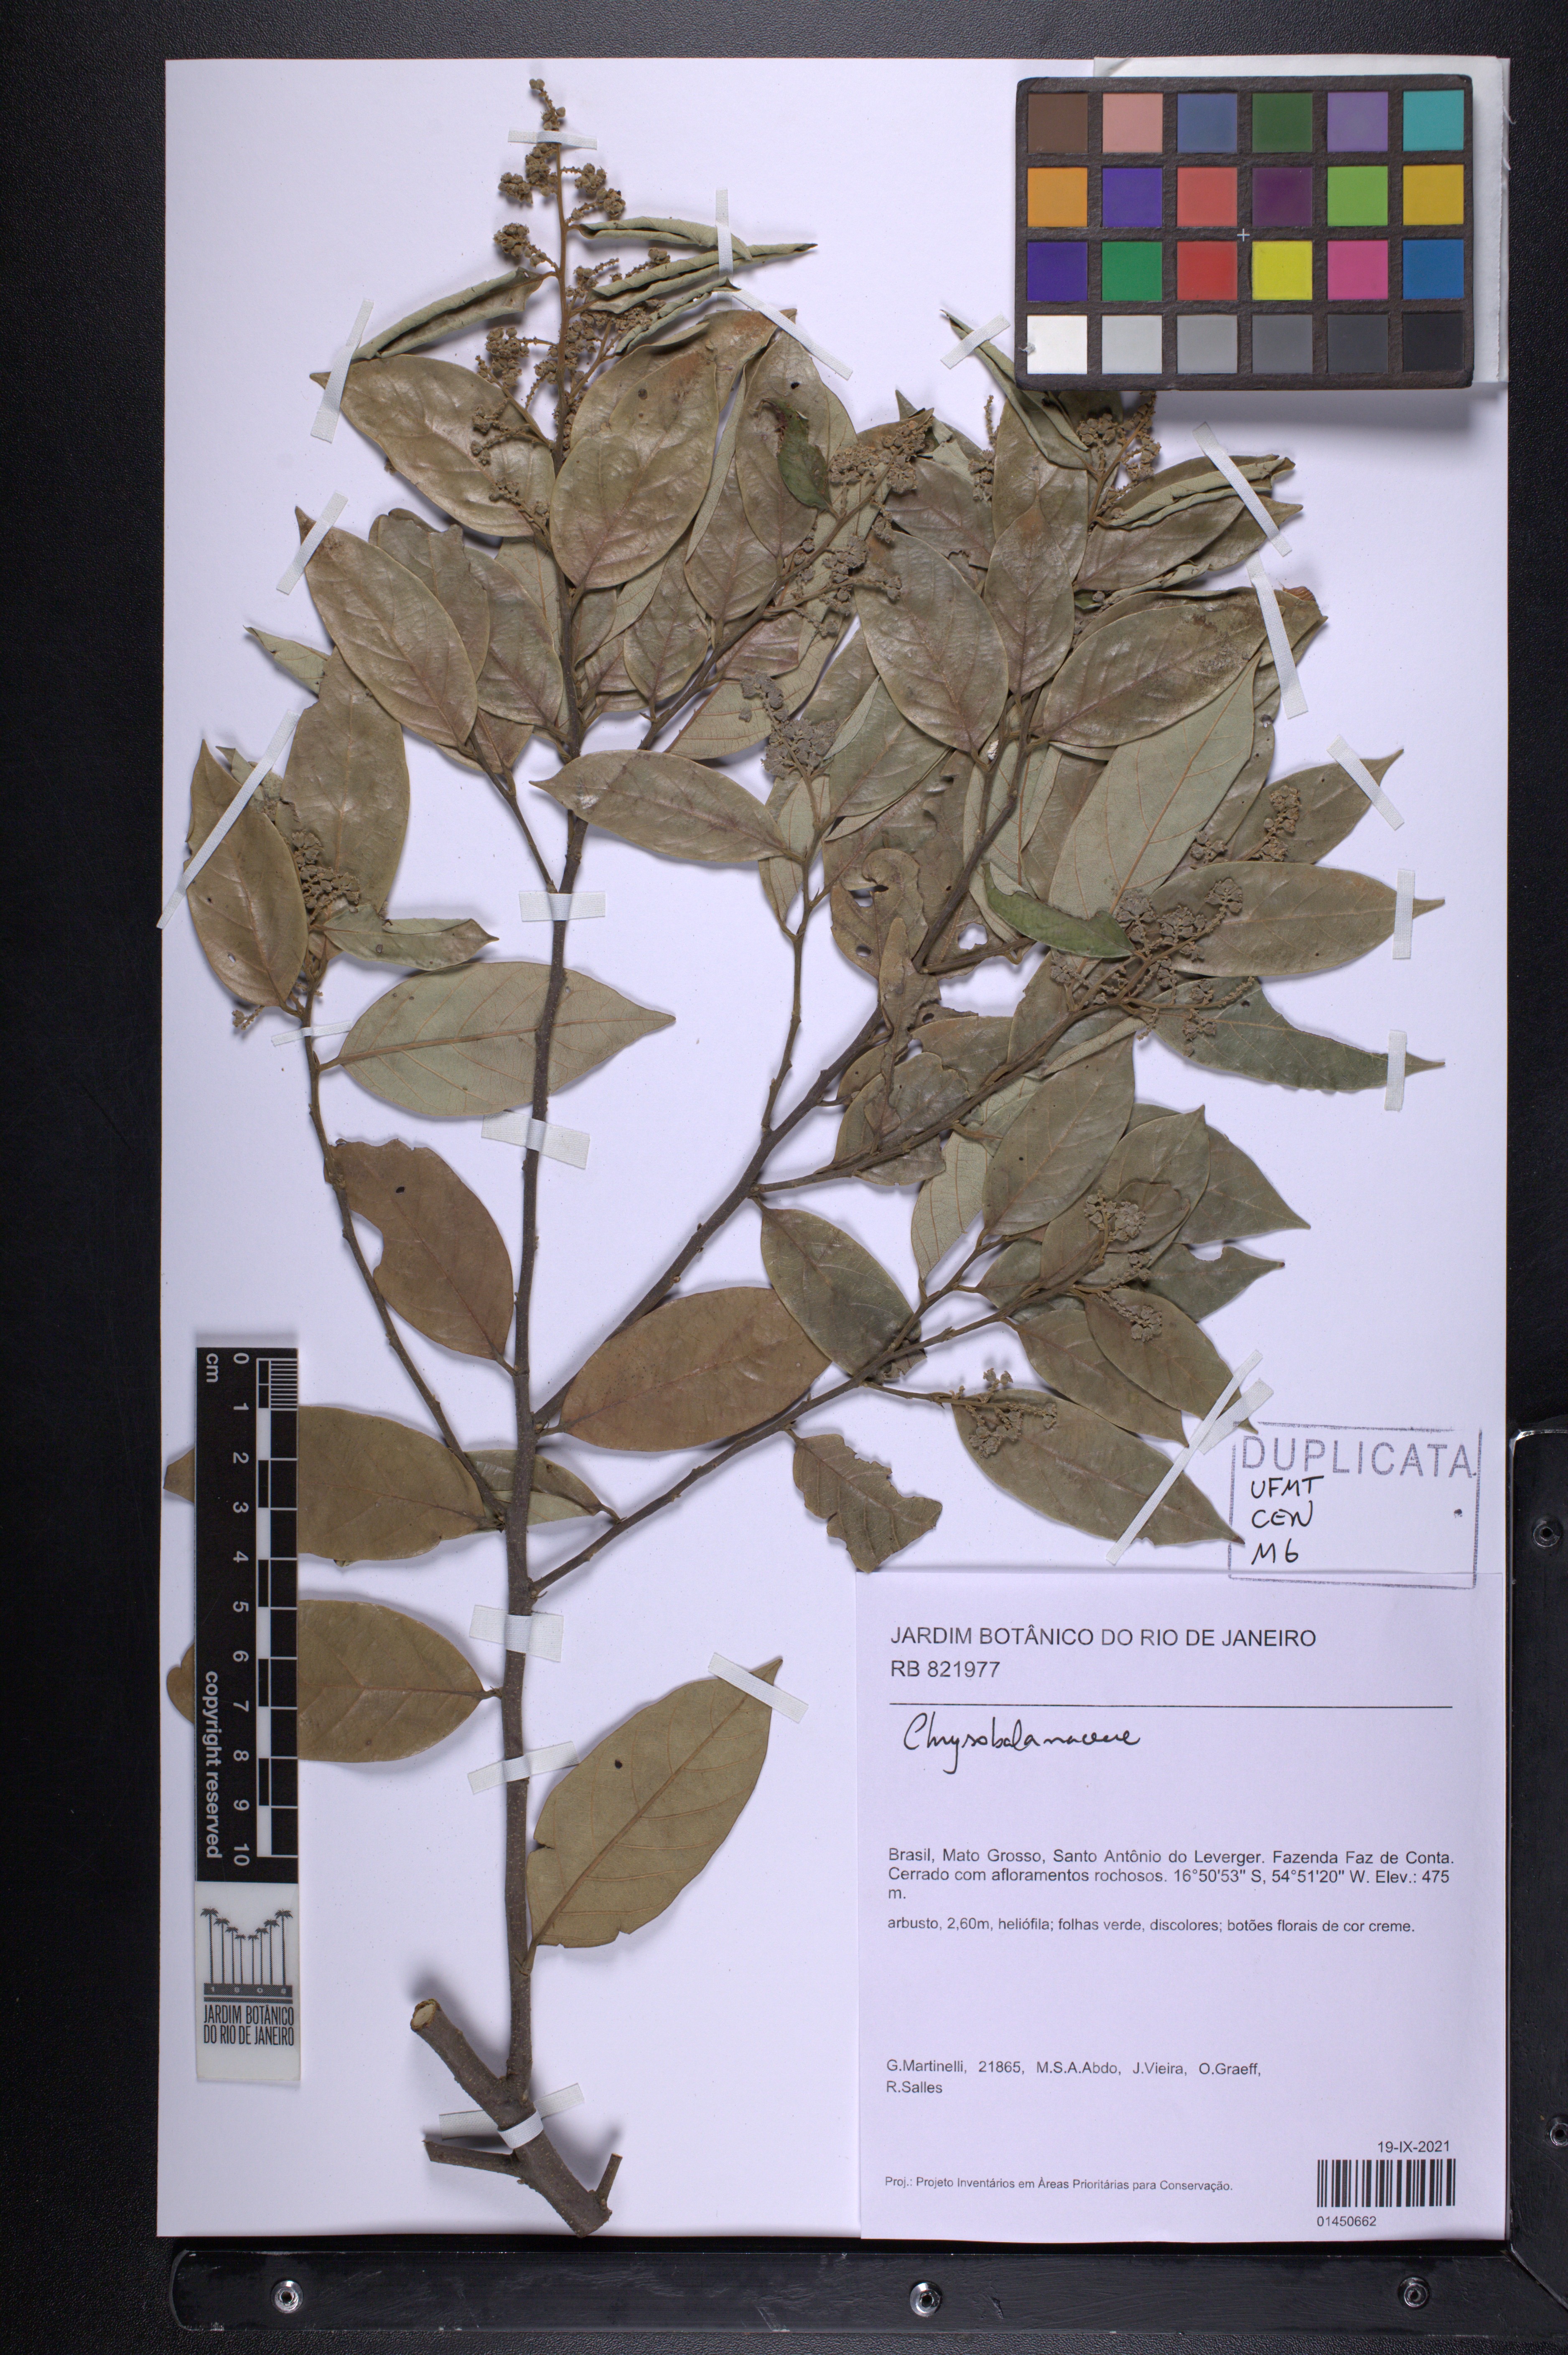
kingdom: Plantae
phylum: Tracheophyta
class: Magnoliopsida
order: Malpighiales
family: Chrysobalanaceae
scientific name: Chrysobalanaceae
